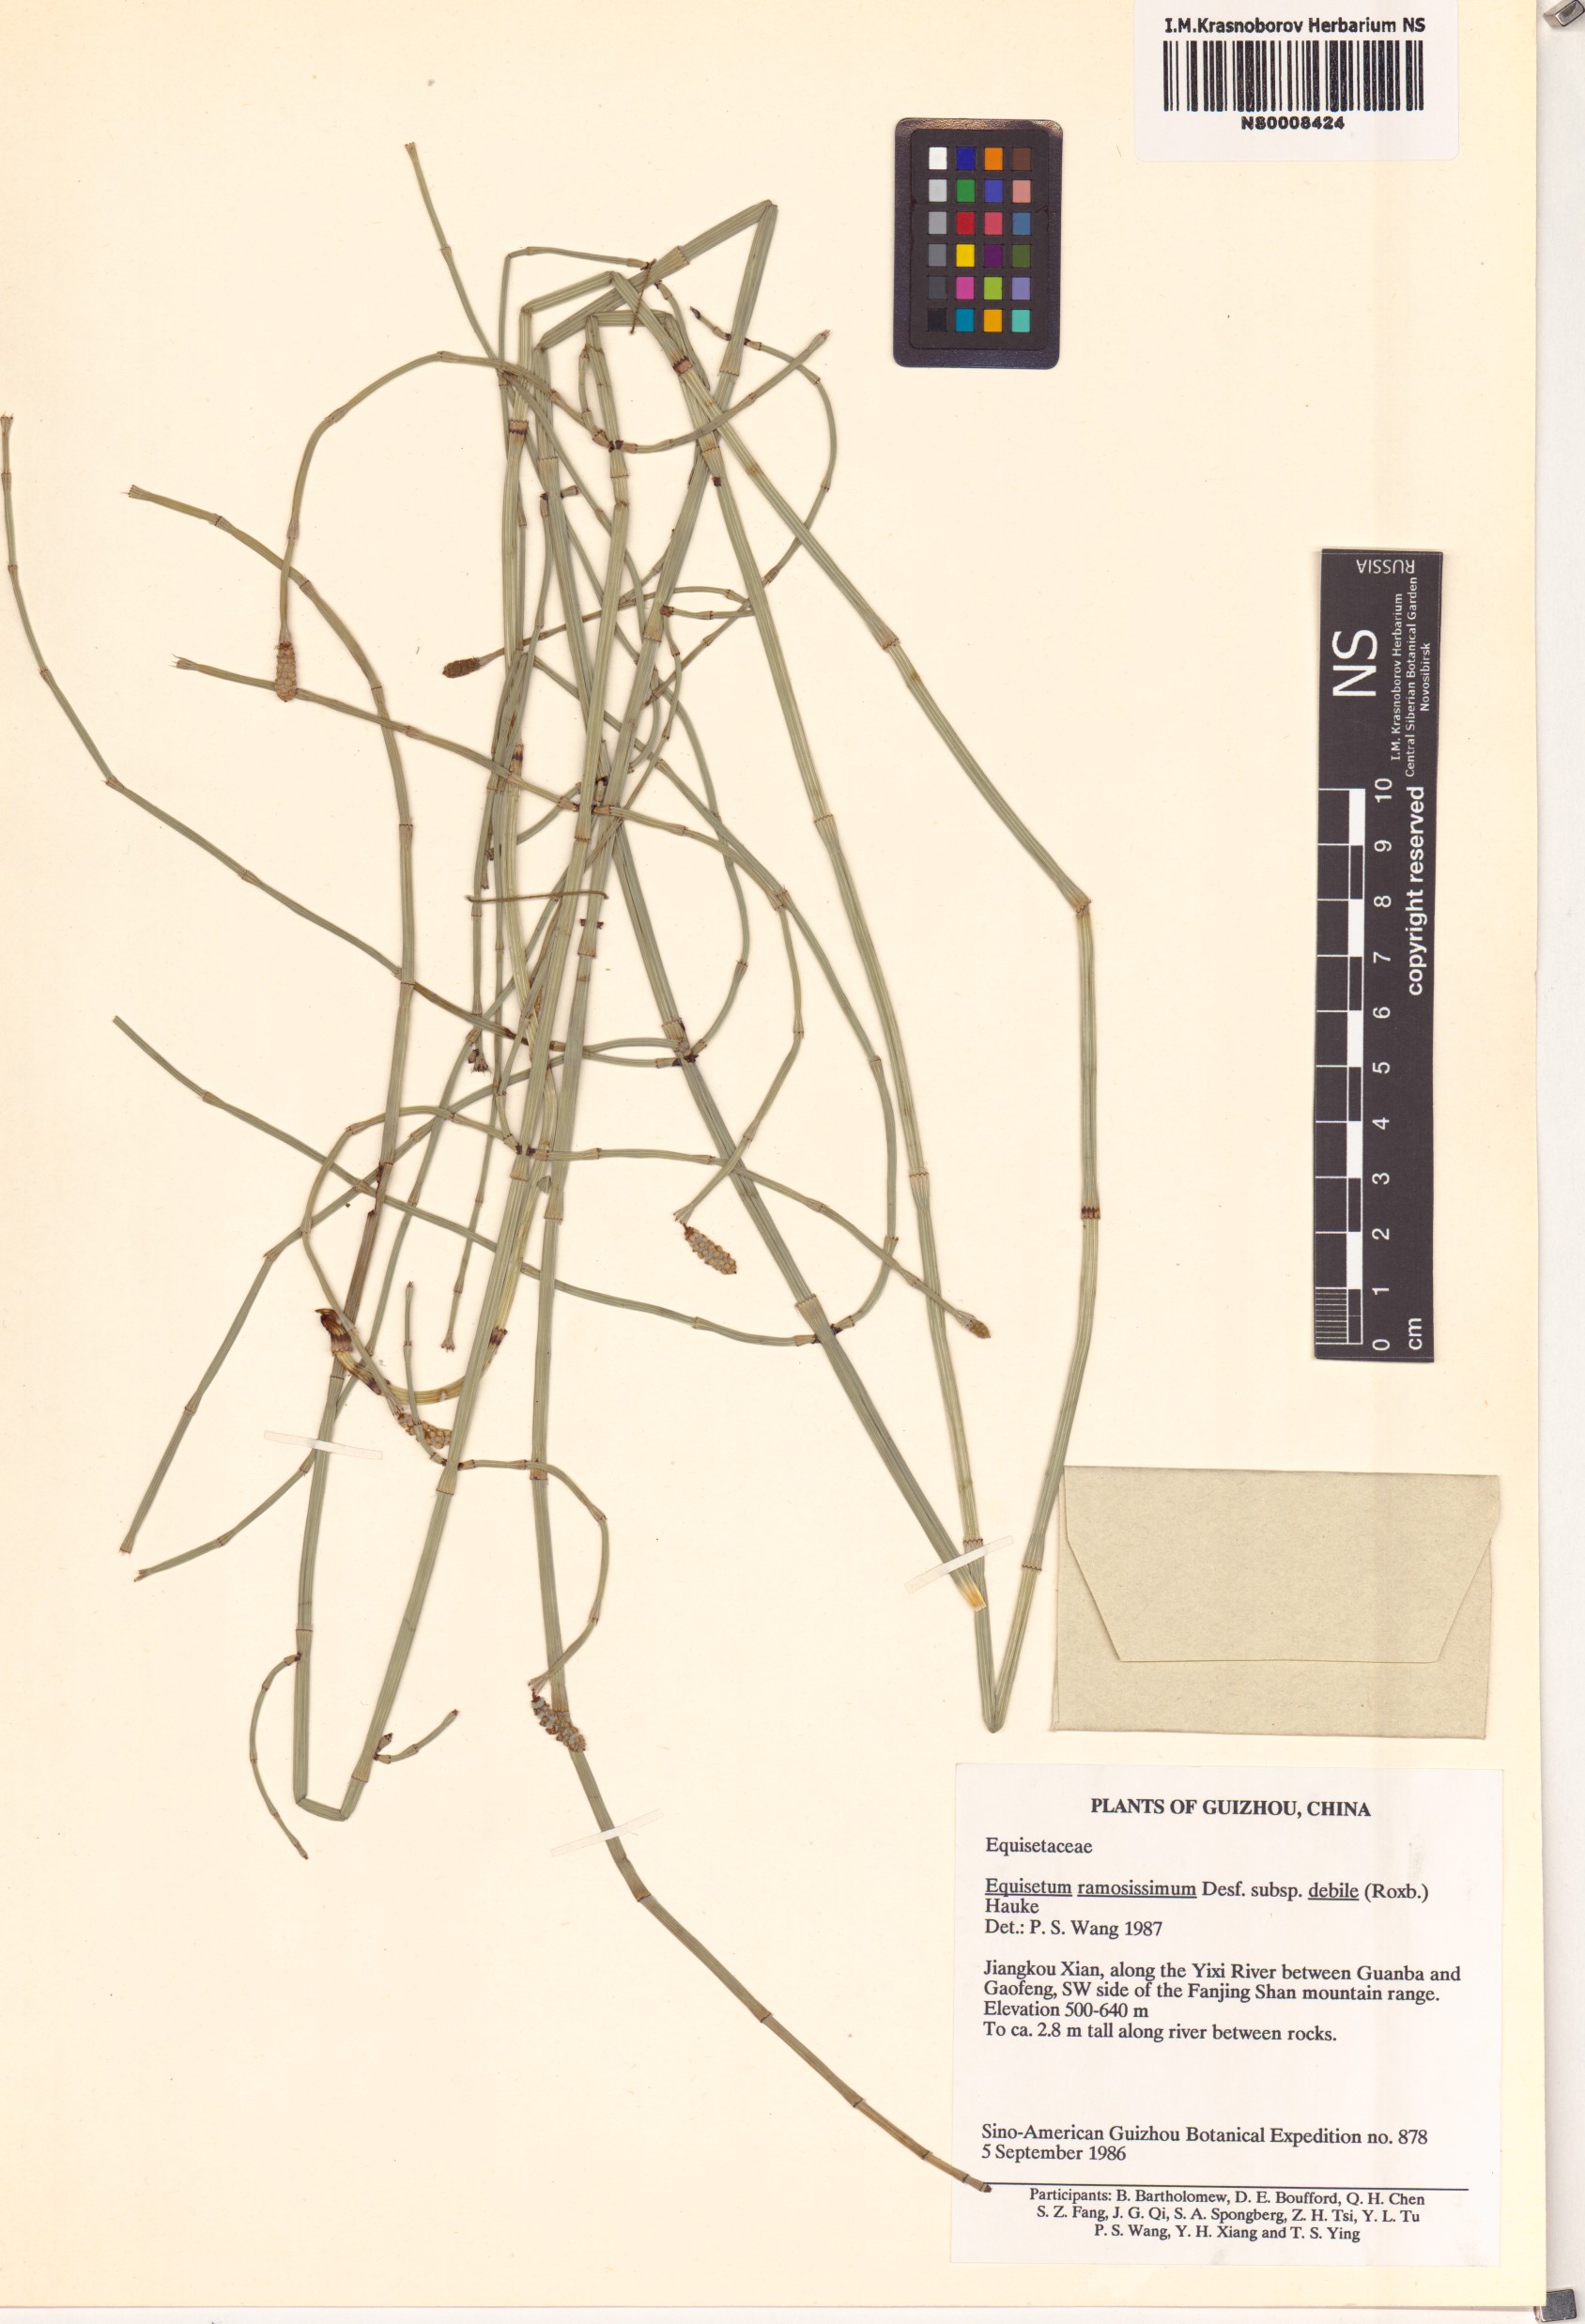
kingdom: Plantae
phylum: Tracheophyta
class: Polypodiopsida
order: Equisetales
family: Equisetaceae
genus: Equisetum
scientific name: Equisetum ramosissimum
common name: Branched horsetail
